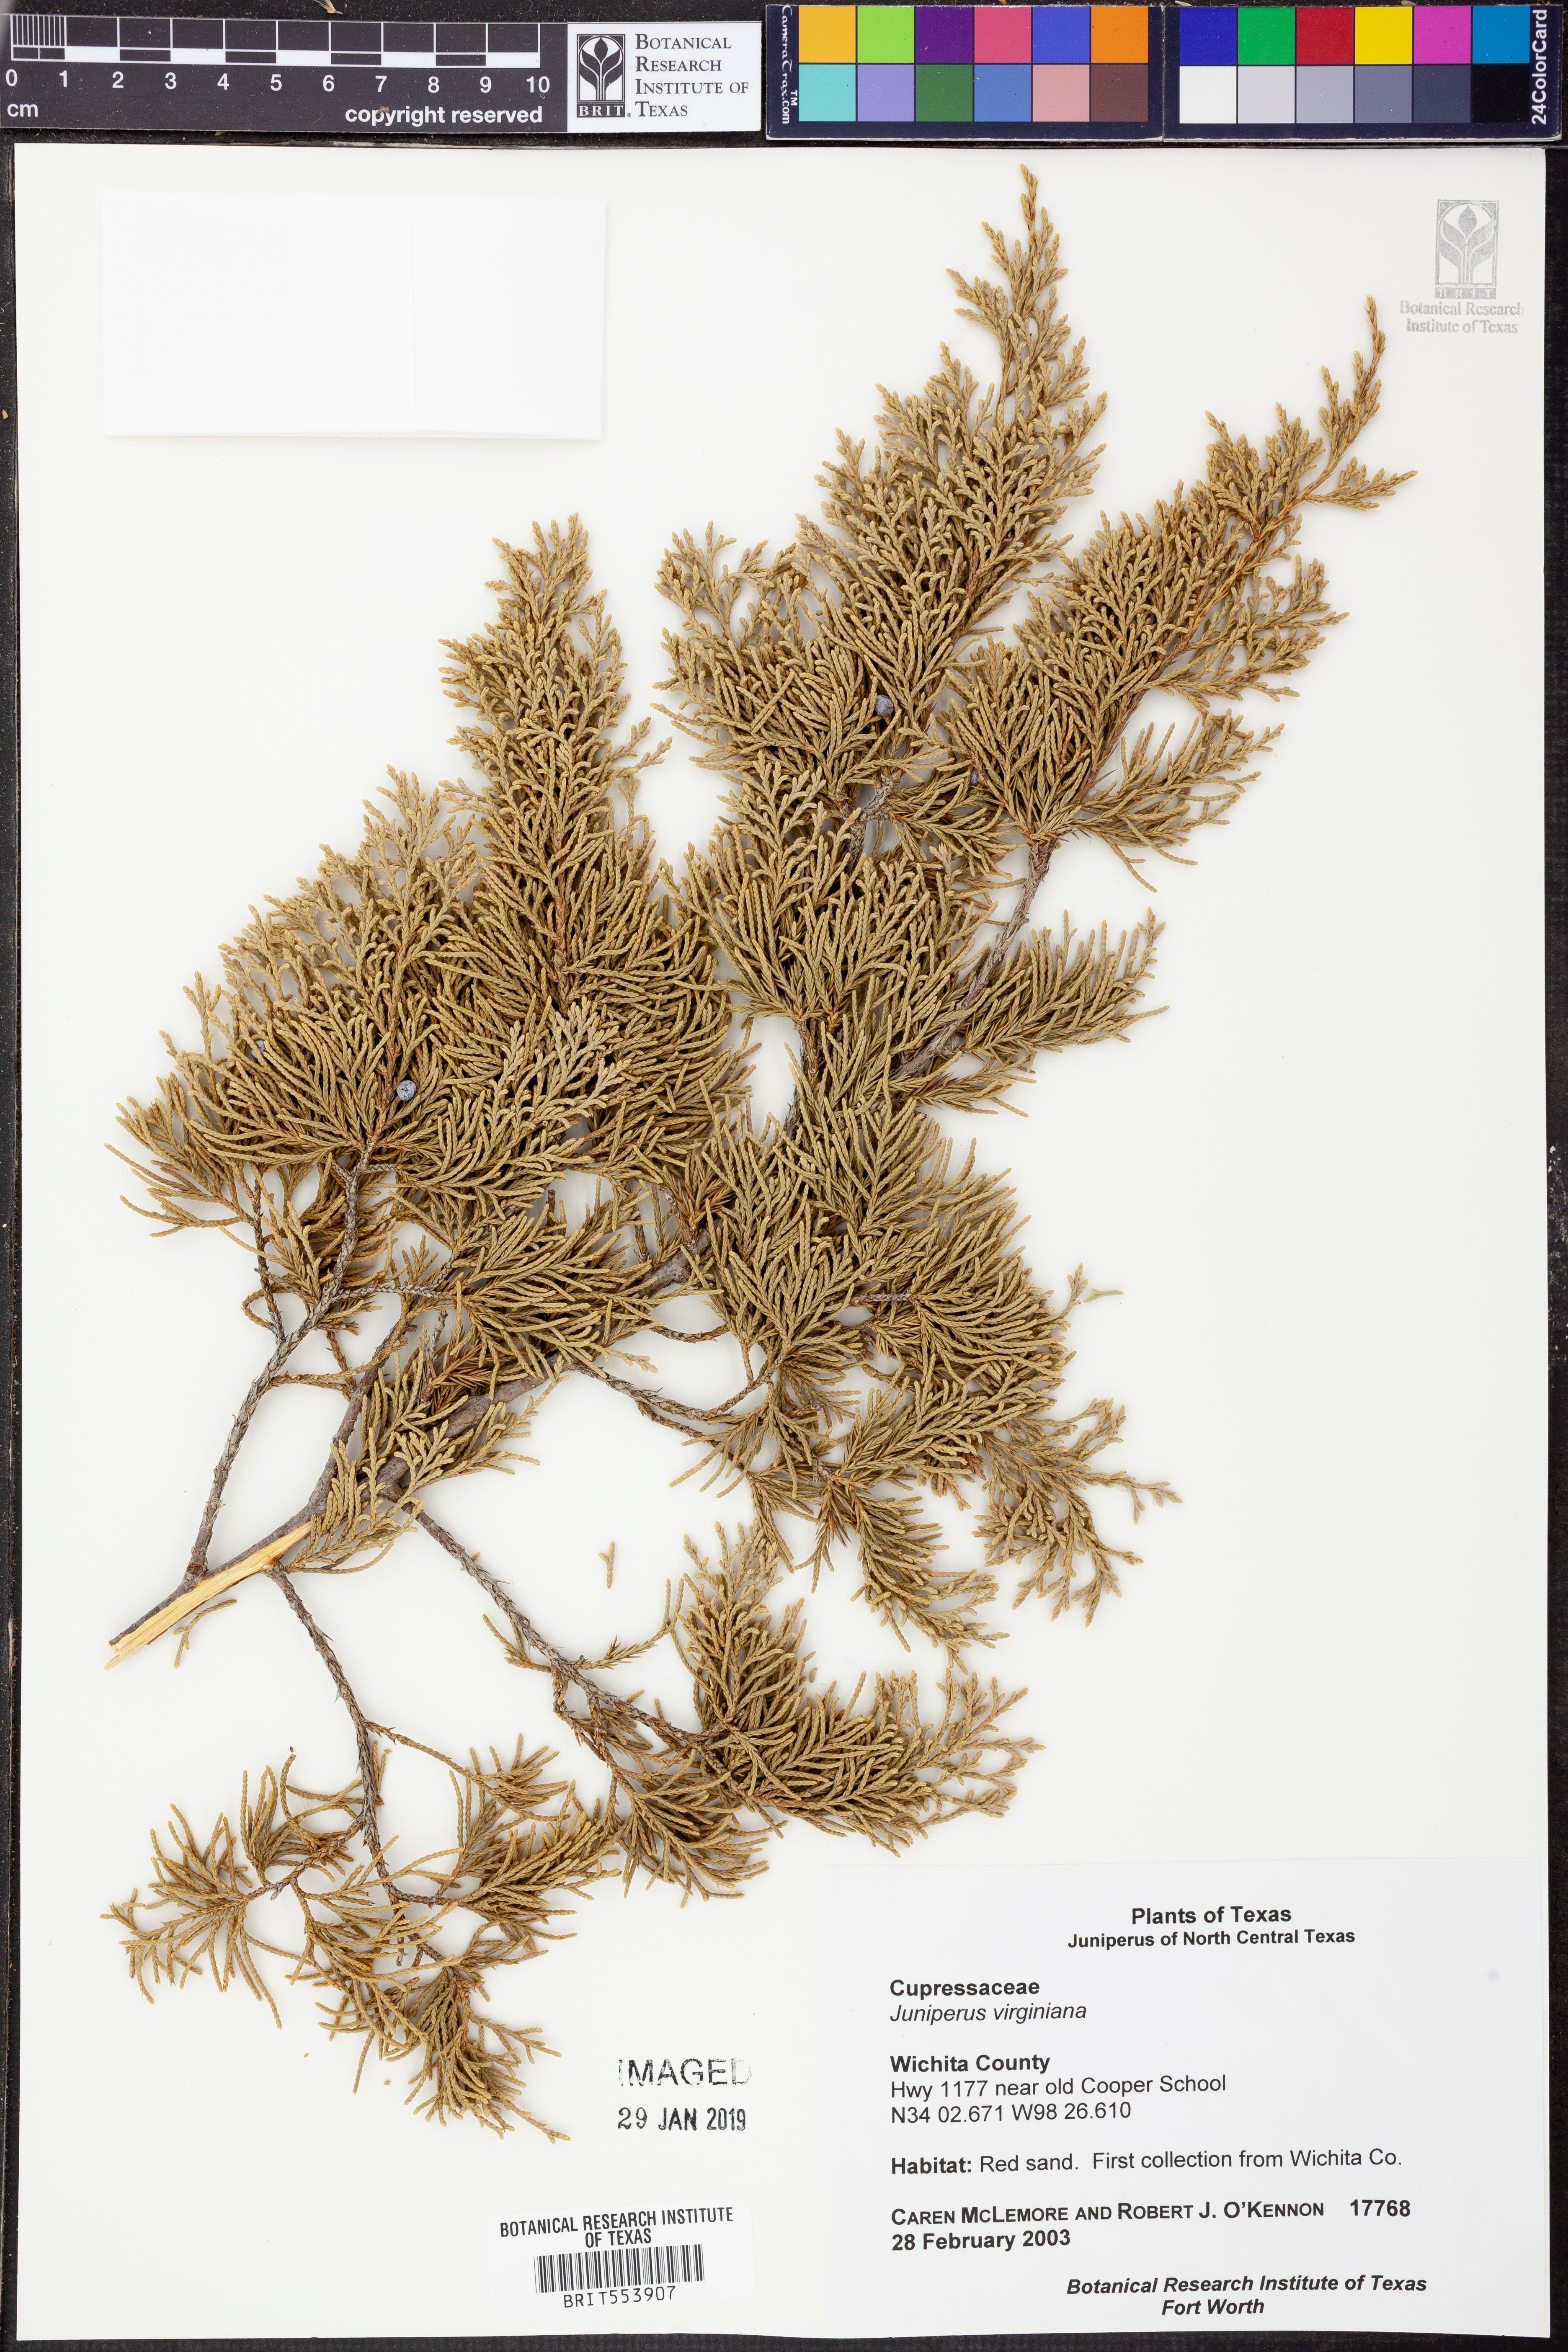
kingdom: Plantae
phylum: Tracheophyta
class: Pinopsida
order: Pinales
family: Cupressaceae
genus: Juniperus
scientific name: Juniperus virginiana
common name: Red juniper
